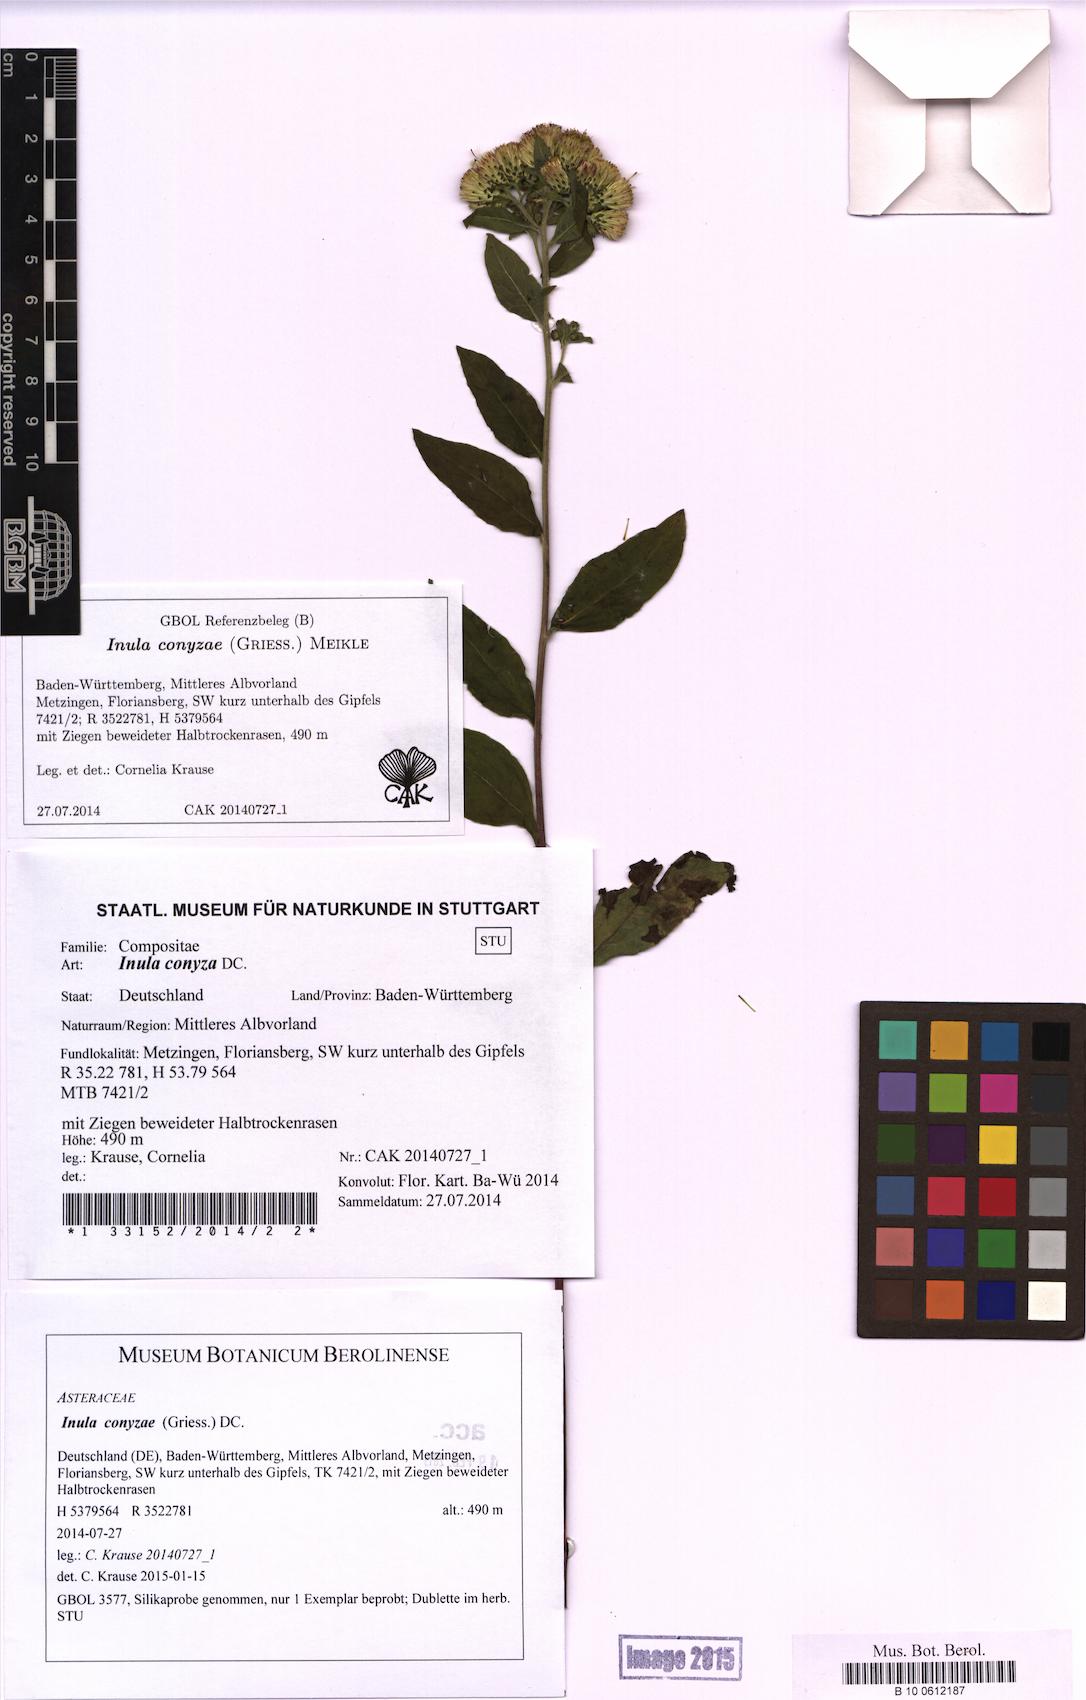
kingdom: Plantae
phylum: Tracheophyta
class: Magnoliopsida
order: Asterales
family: Asteraceae
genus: Pentanema
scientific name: Pentanema squarrosum
